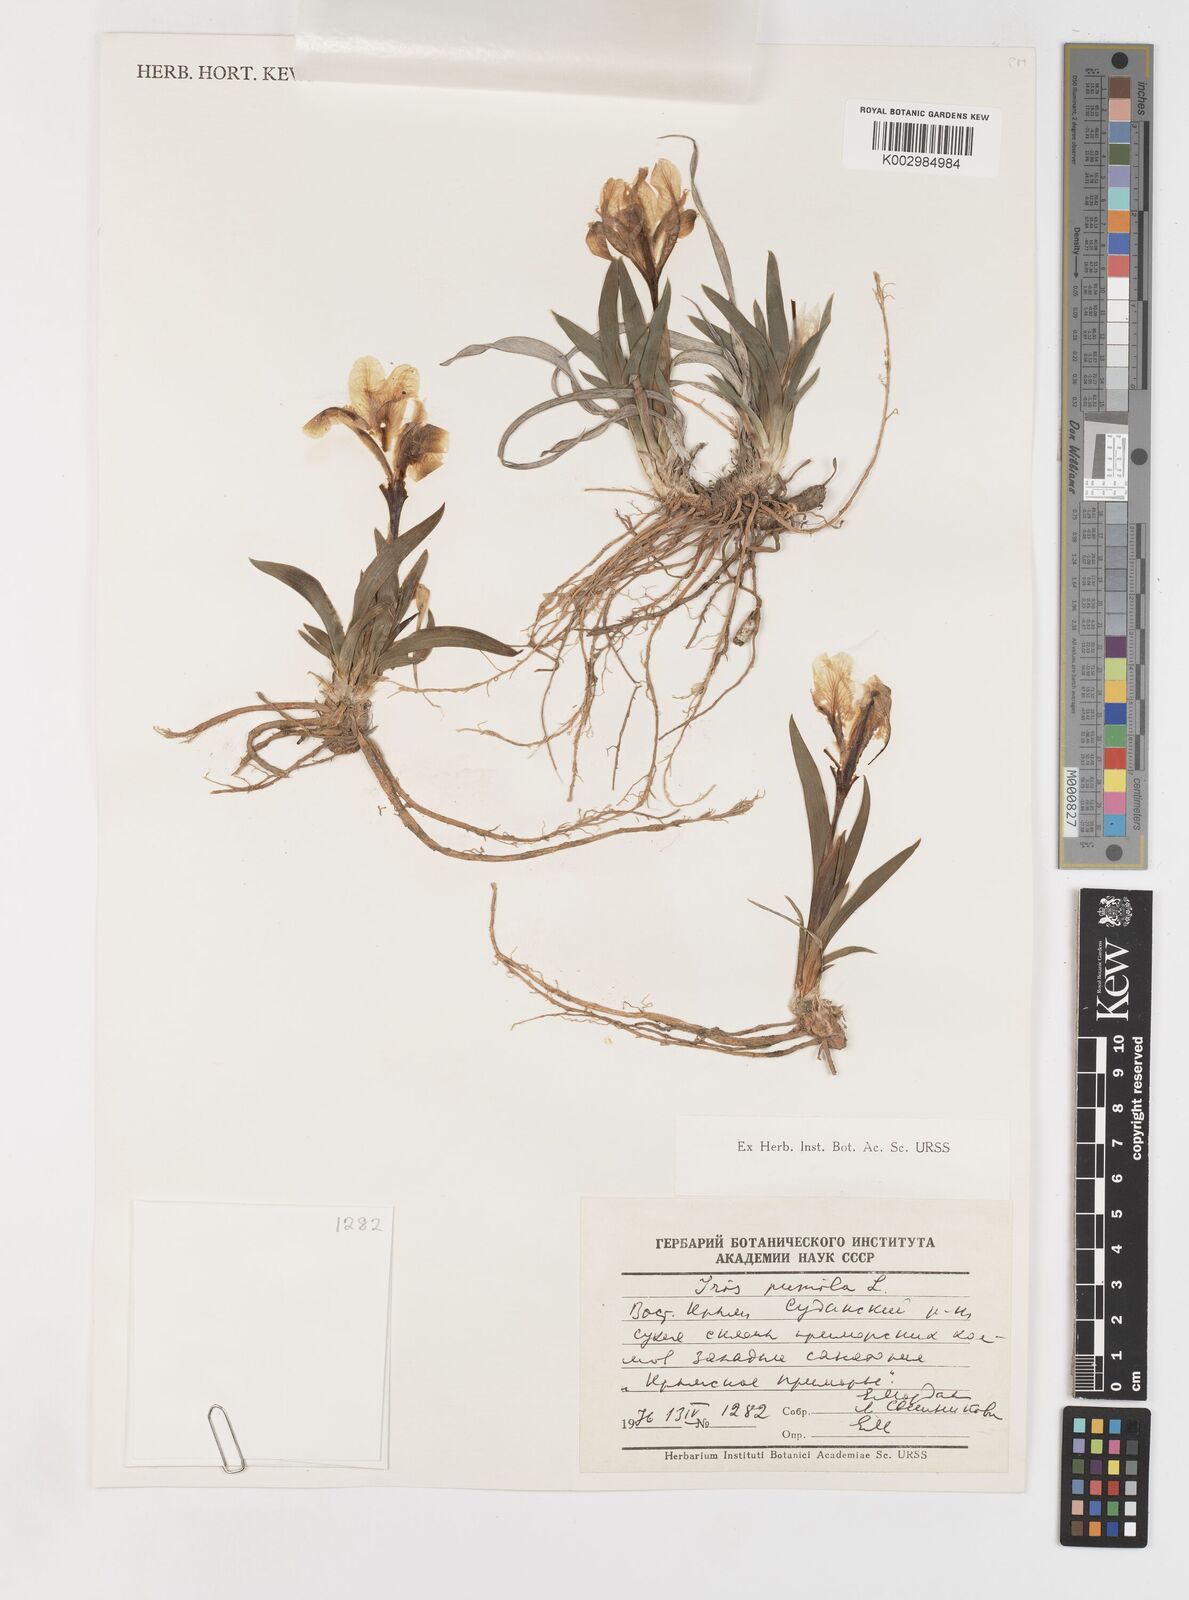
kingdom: Plantae
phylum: Tracheophyta
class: Liliopsida
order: Asparagales
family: Iridaceae
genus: Iris
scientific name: Iris pumila
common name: Dwarf iris
